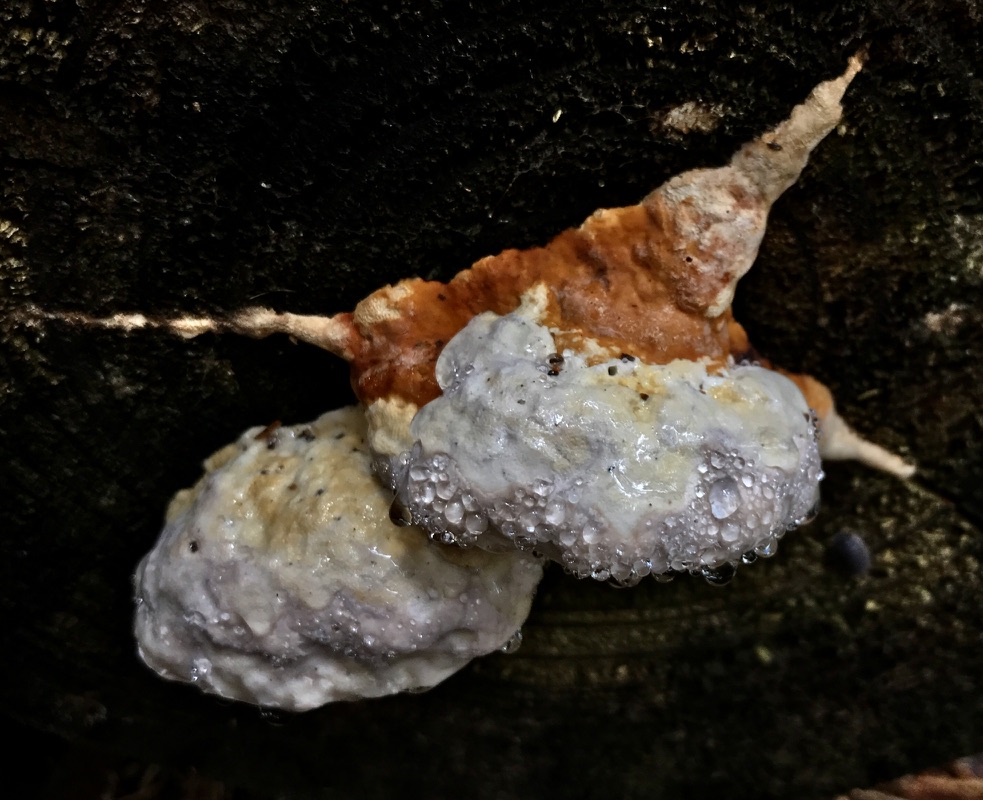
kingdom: Fungi
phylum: Basidiomycota
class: Agaricomycetes
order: Polyporales
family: Fomitopsidaceae
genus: Fomitopsis
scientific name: Fomitopsis pinicola
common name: randbæltet hovporesvamp
